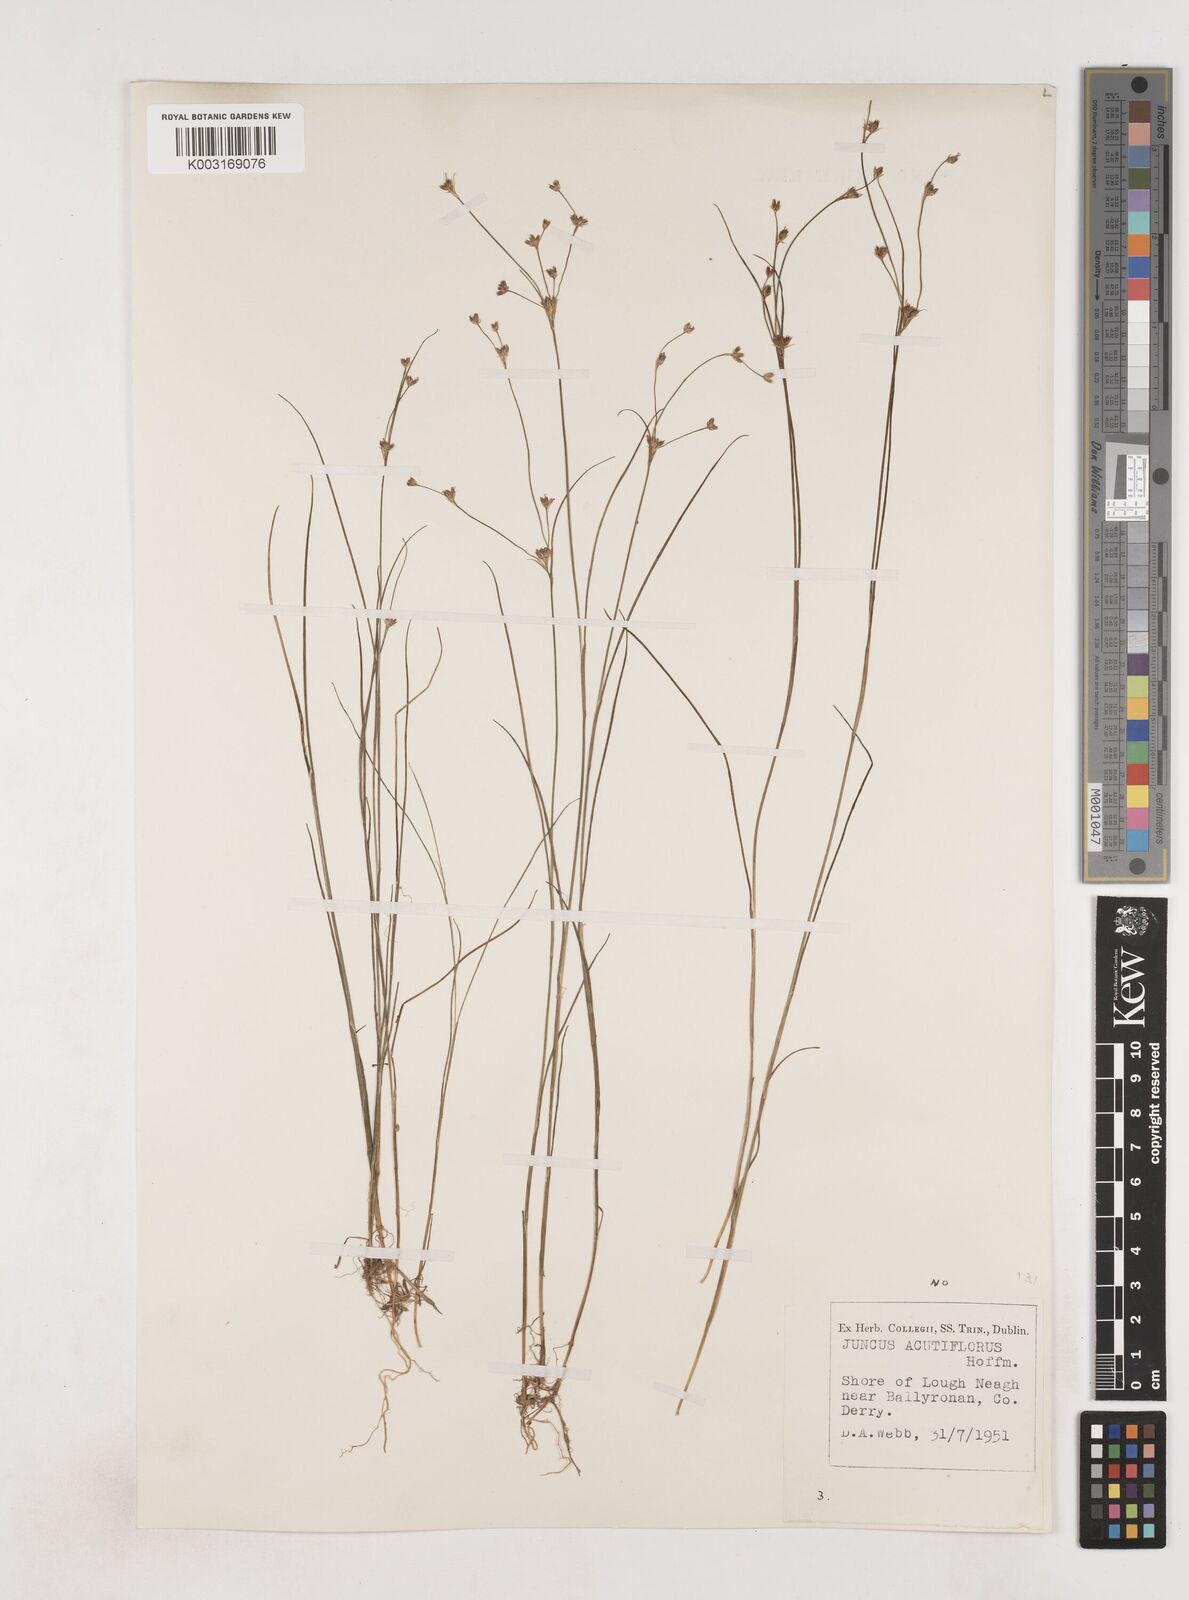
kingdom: Plantae
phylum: Tracheophyta
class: Liliopsida
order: Poales
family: Juncaceae
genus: Juncus
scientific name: Juncus bulbosus
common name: Bulbous rush
